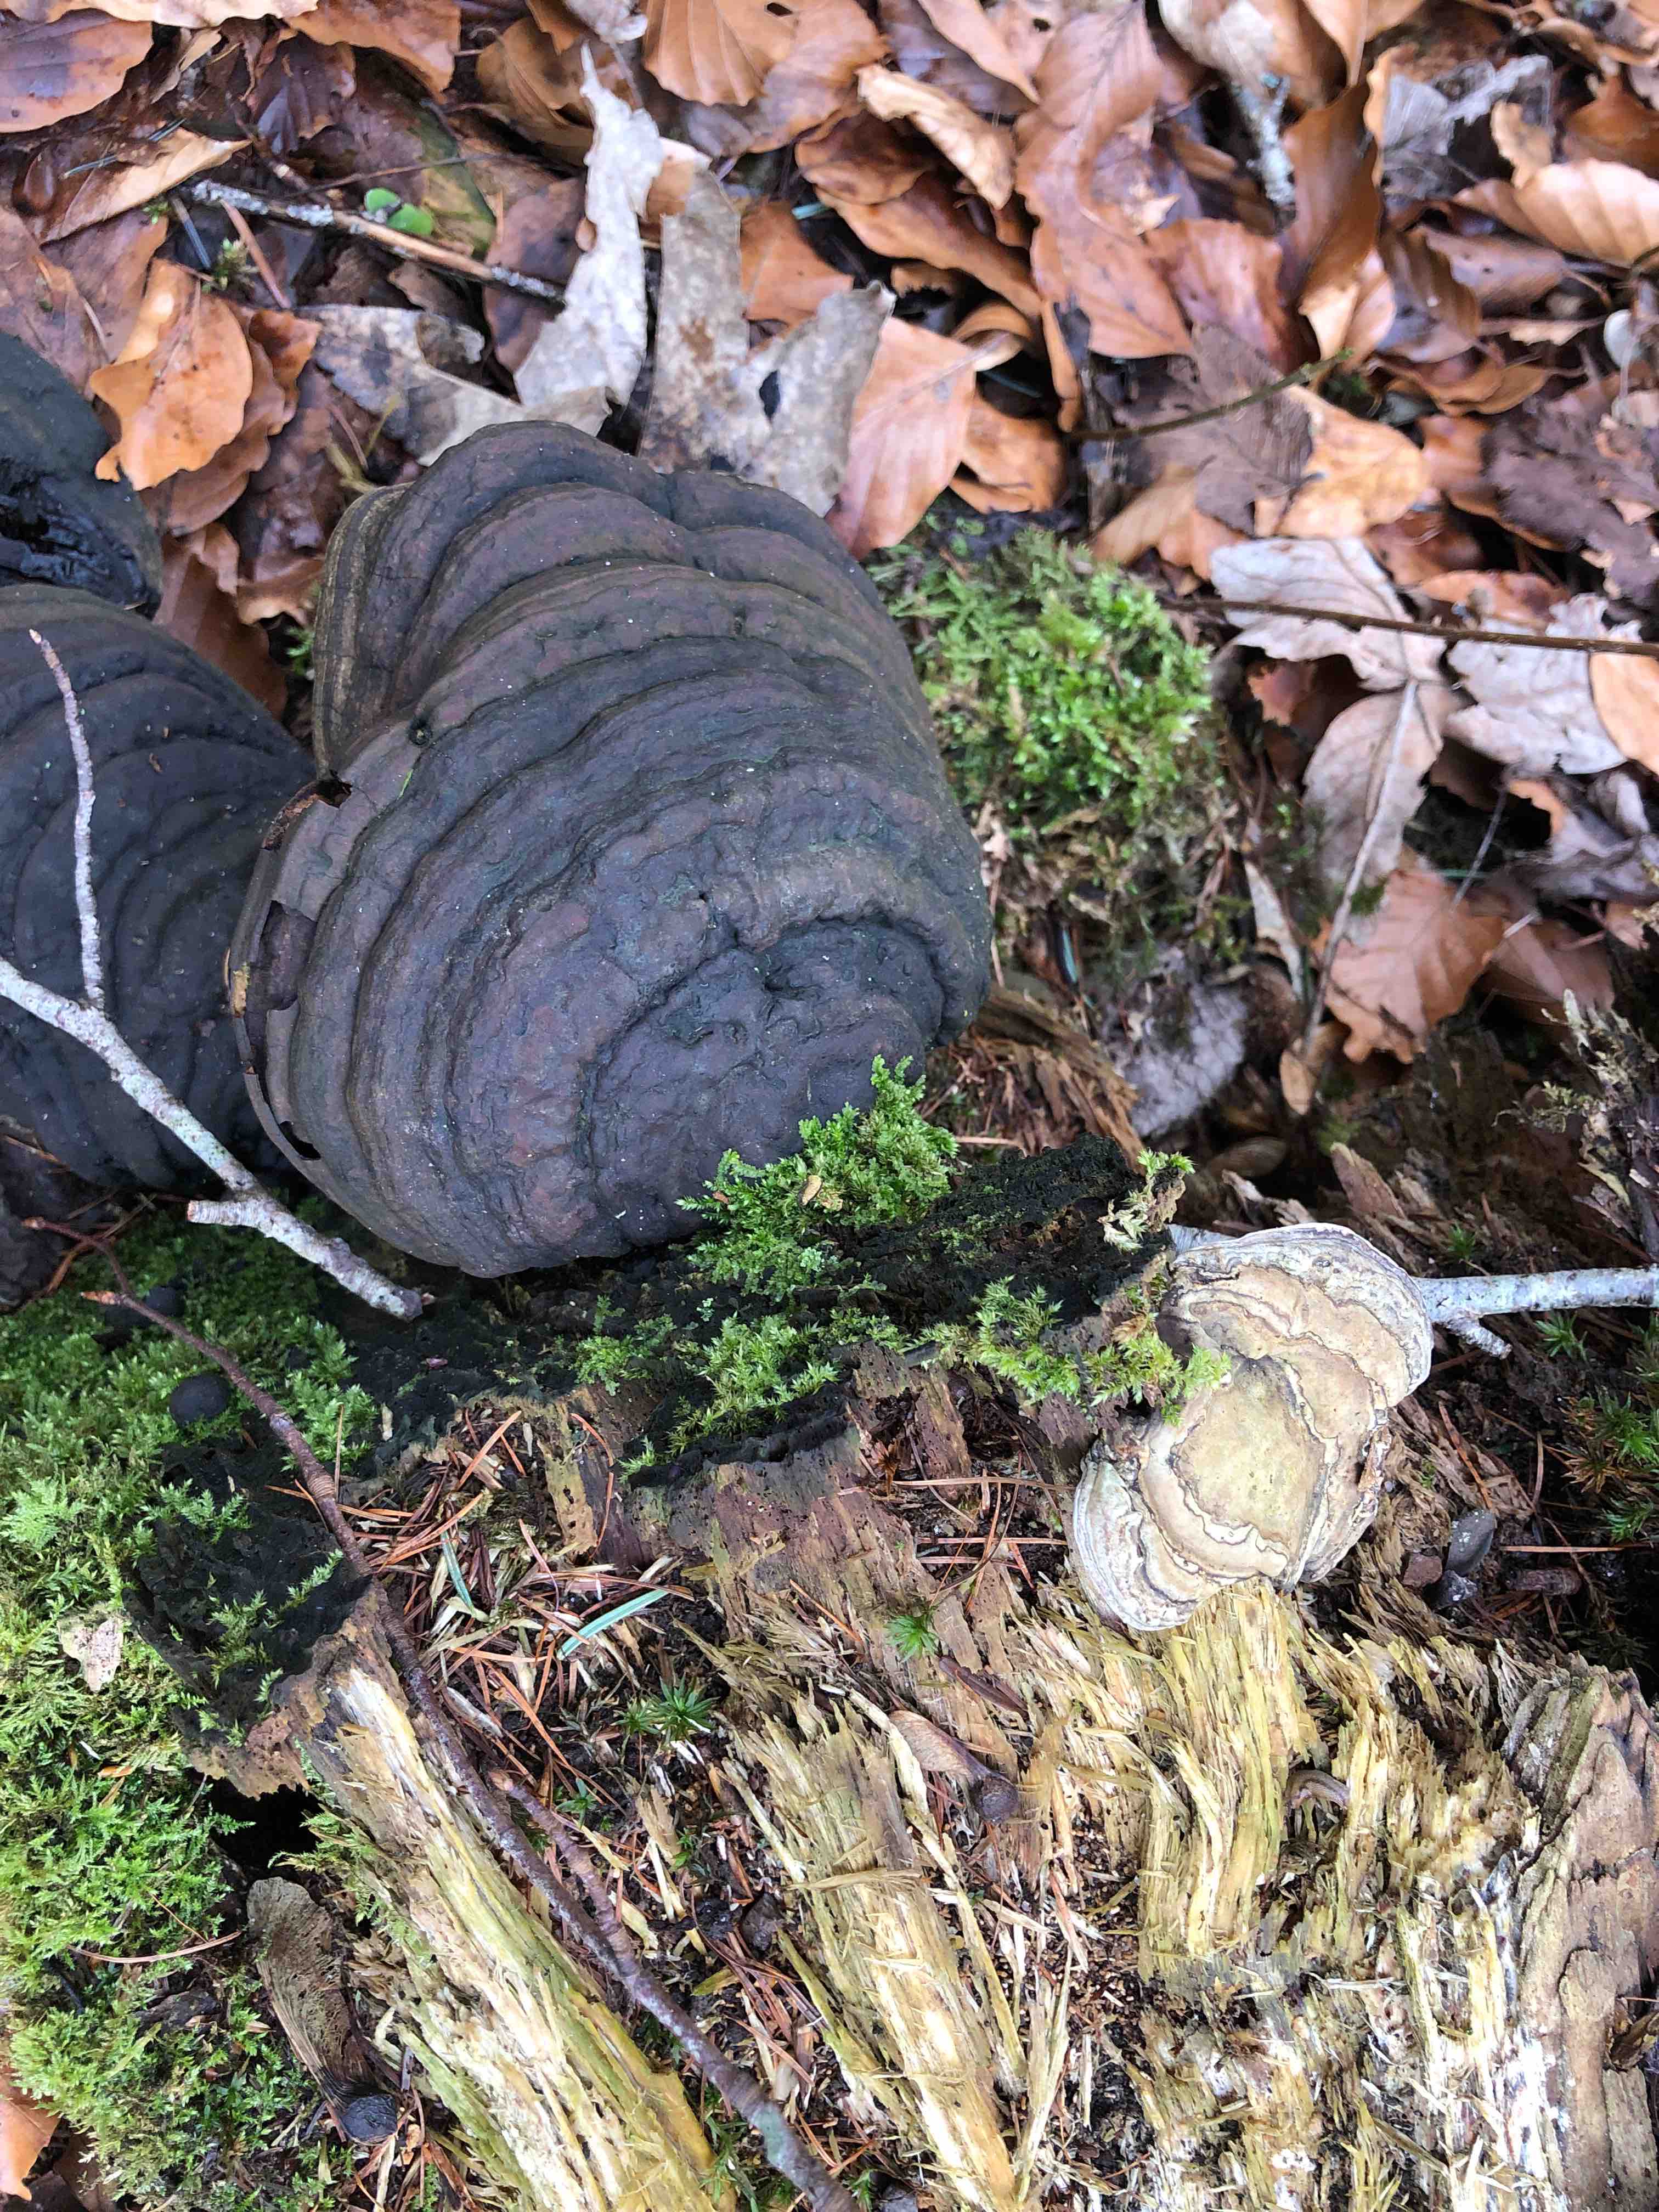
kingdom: Fungi
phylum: Basidiomycota
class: Agaricomycetes
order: Polyporales
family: Polyporaceae
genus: Fomes
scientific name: Fomes fomentarius
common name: tøndersvamp
